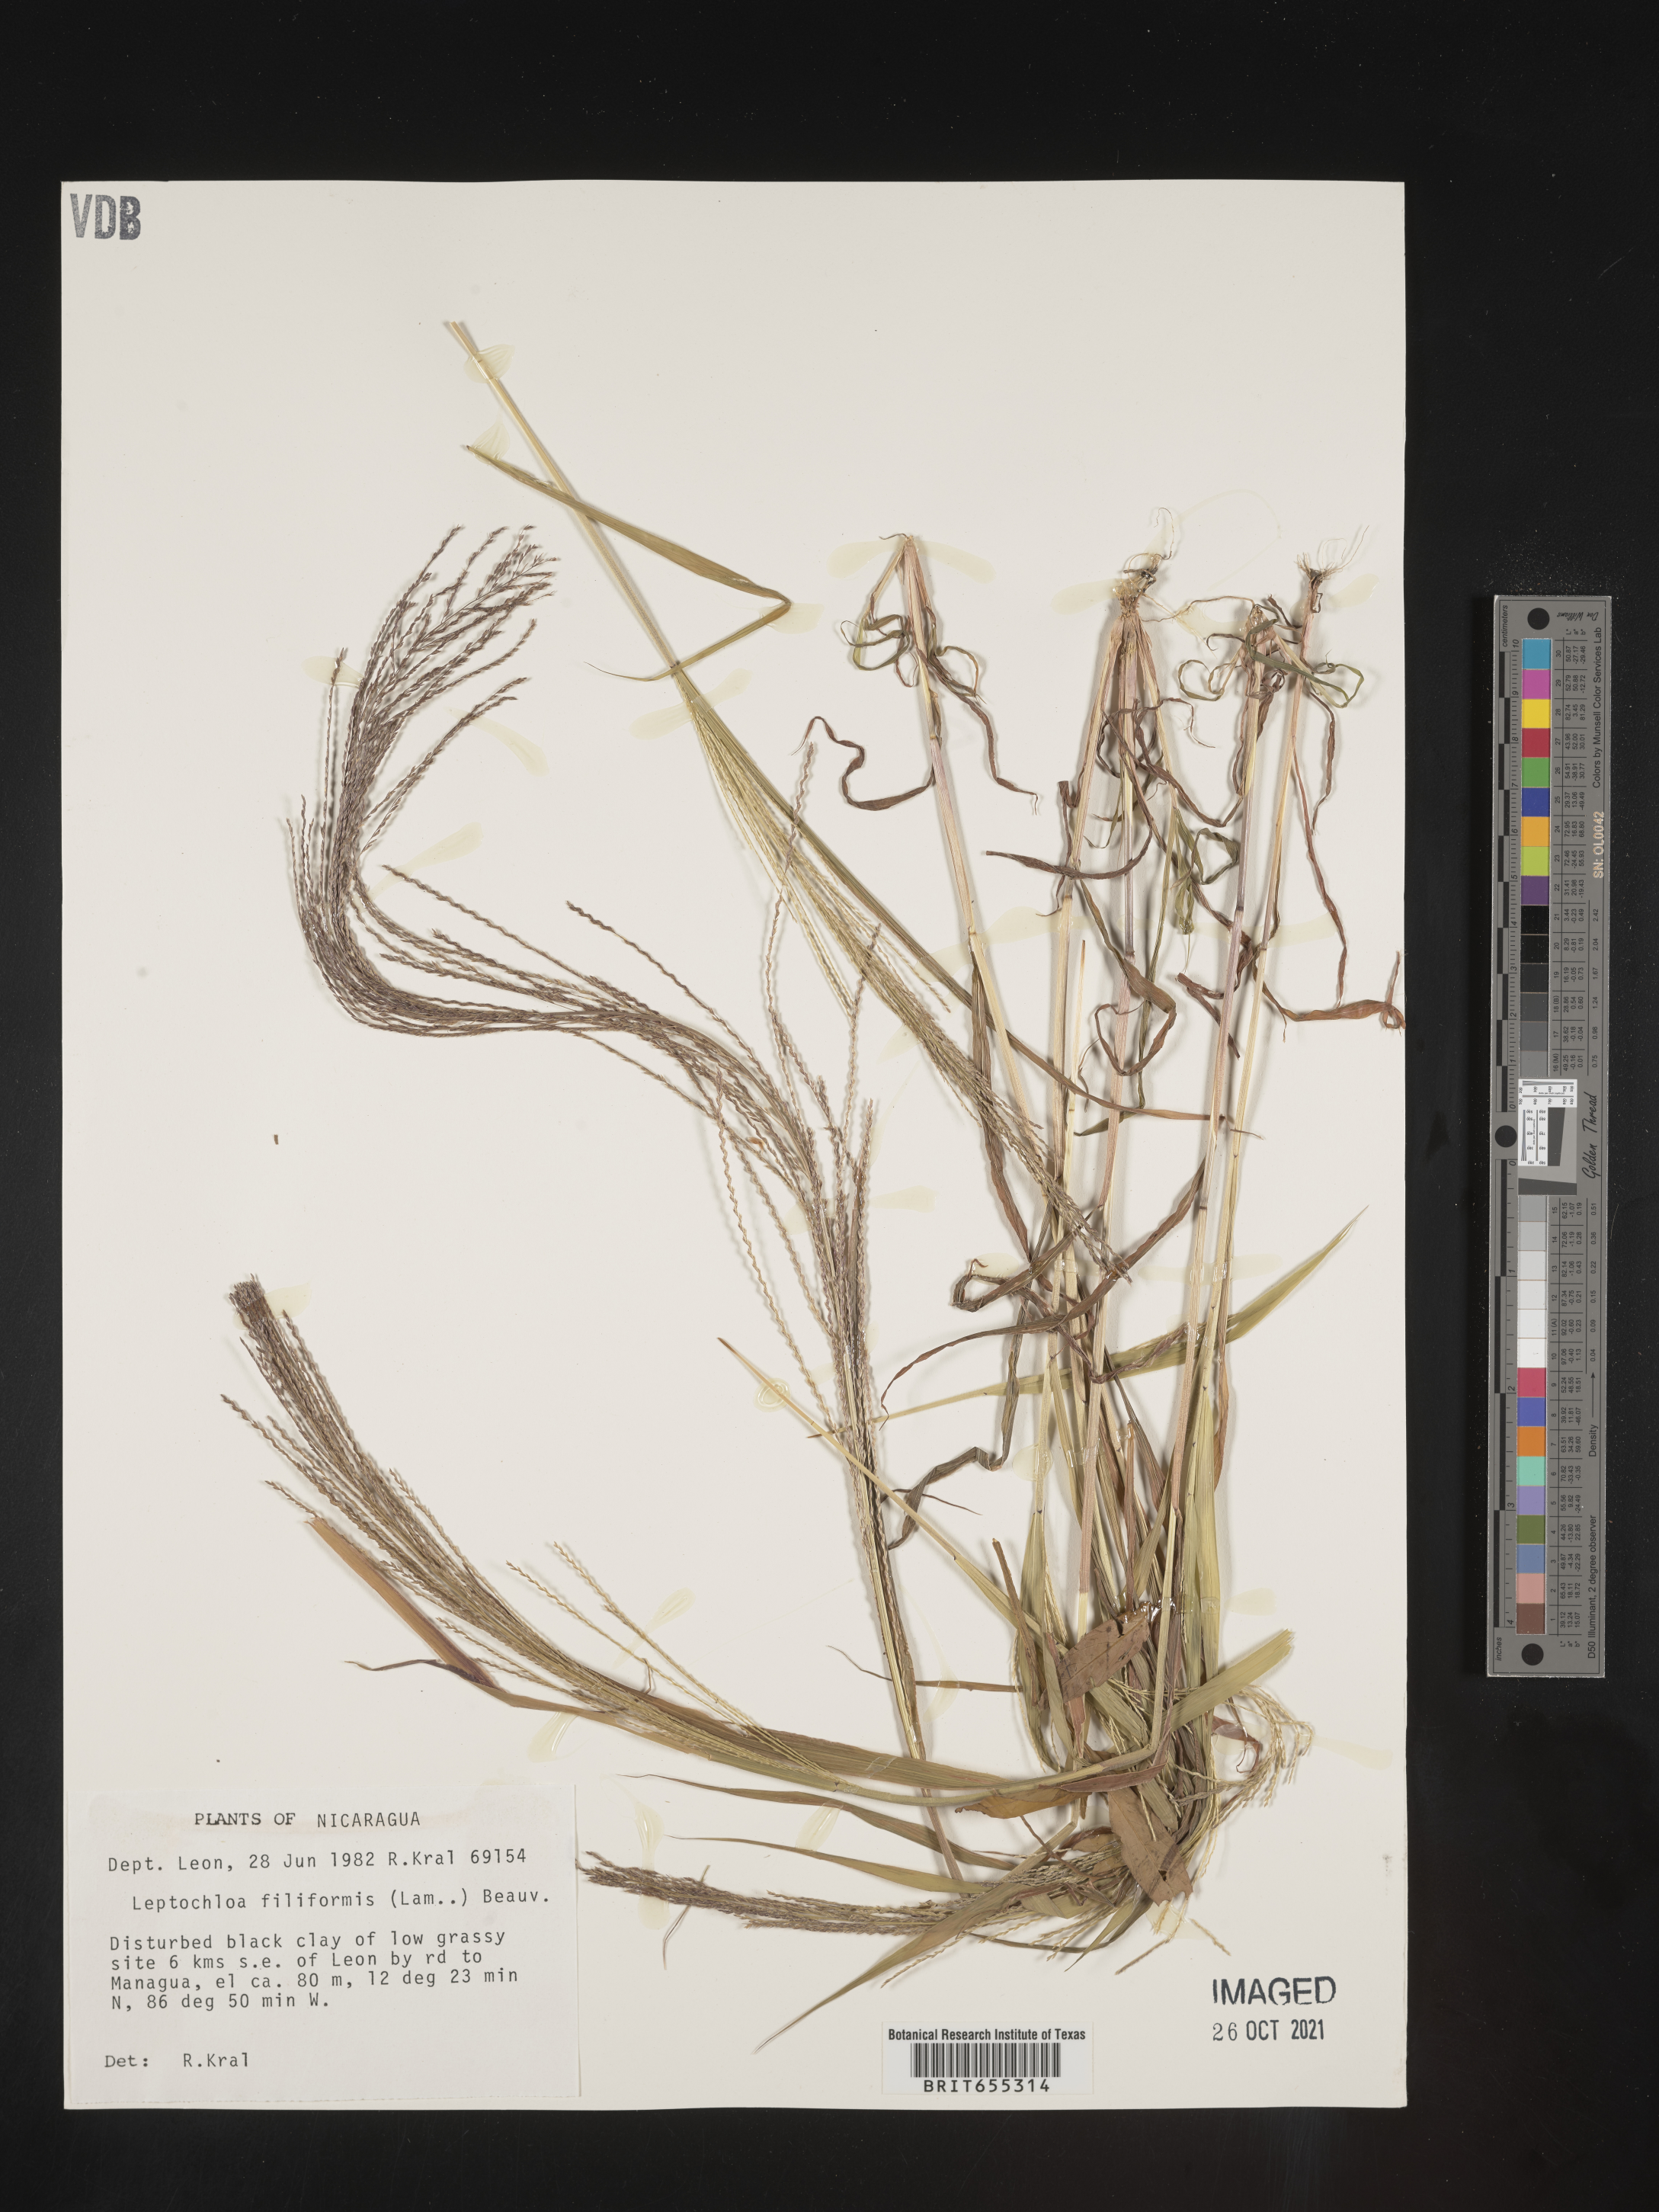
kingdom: Plantae
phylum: Tracheophyta
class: Liliopsida
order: Poales
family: Poaceae
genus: Digitaria
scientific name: Digitaria
